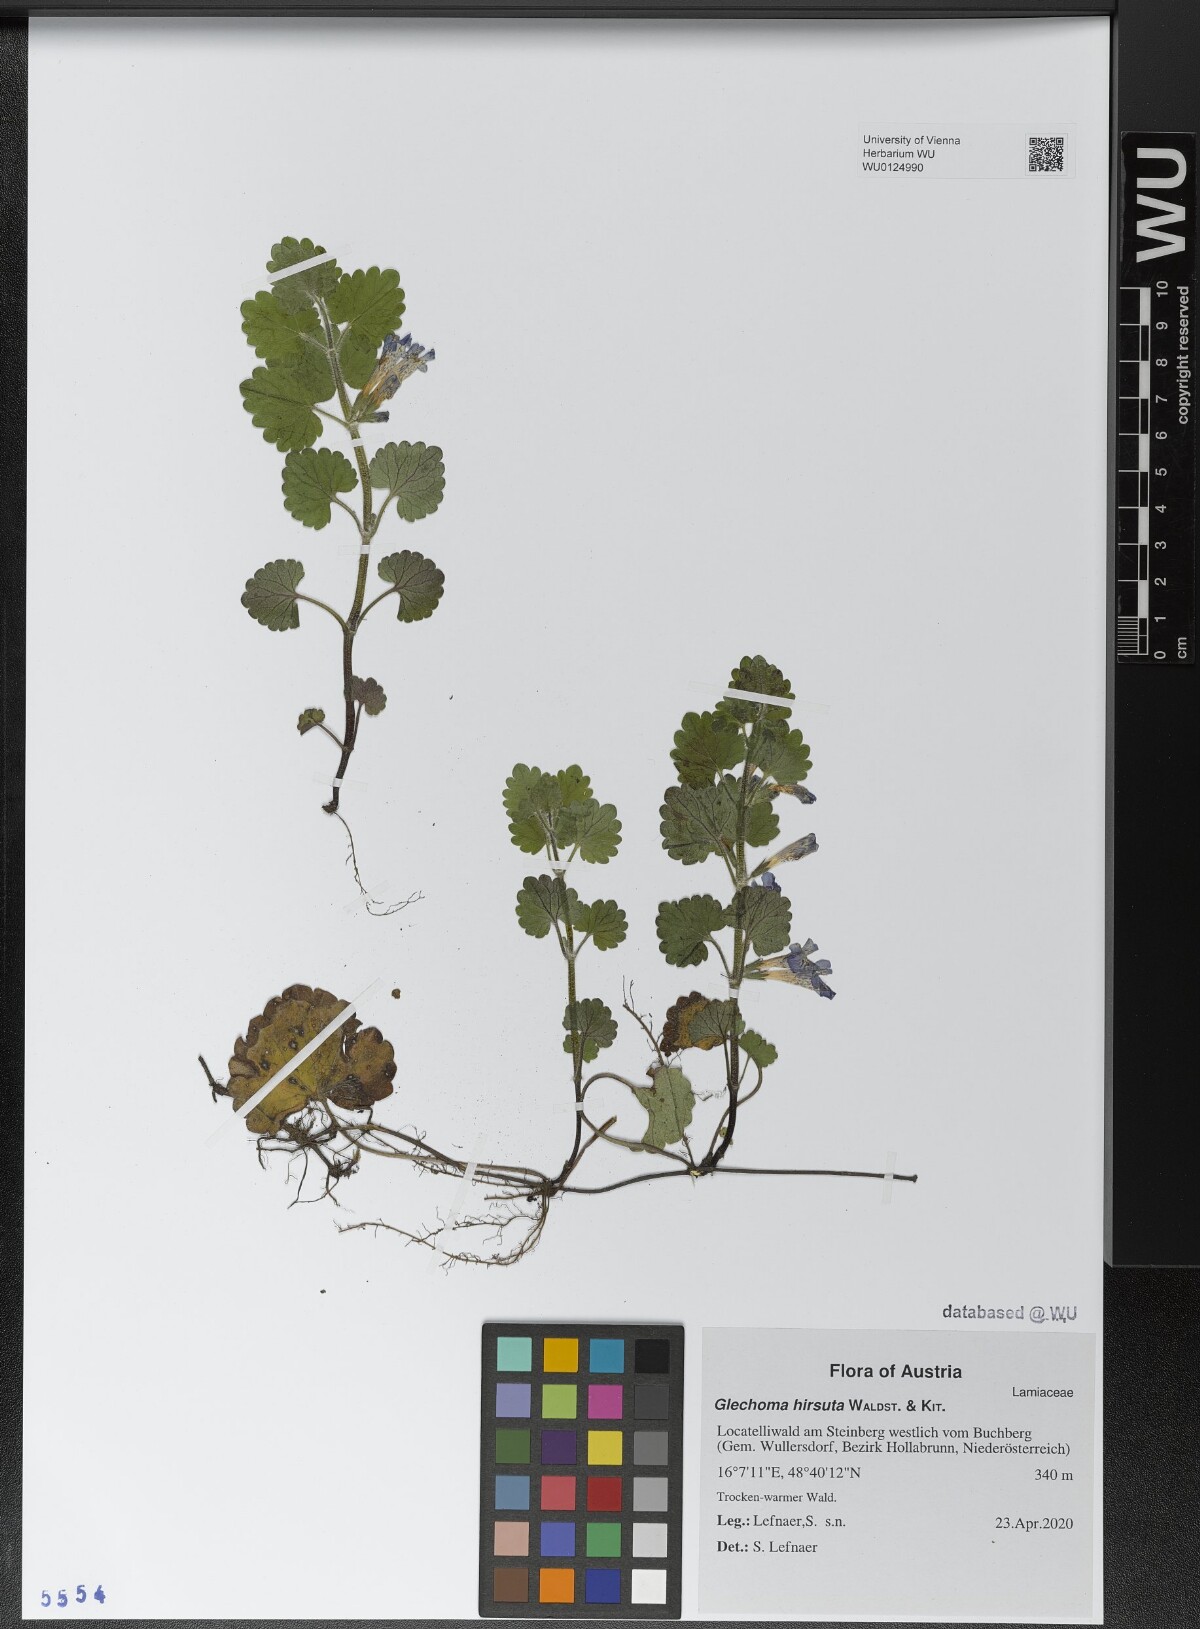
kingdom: Plantae
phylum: Tracheophyta
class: Magnoliopsida
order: Lamiales
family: Lamiaceae
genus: Glechoma
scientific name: Glechoma hirsuta
